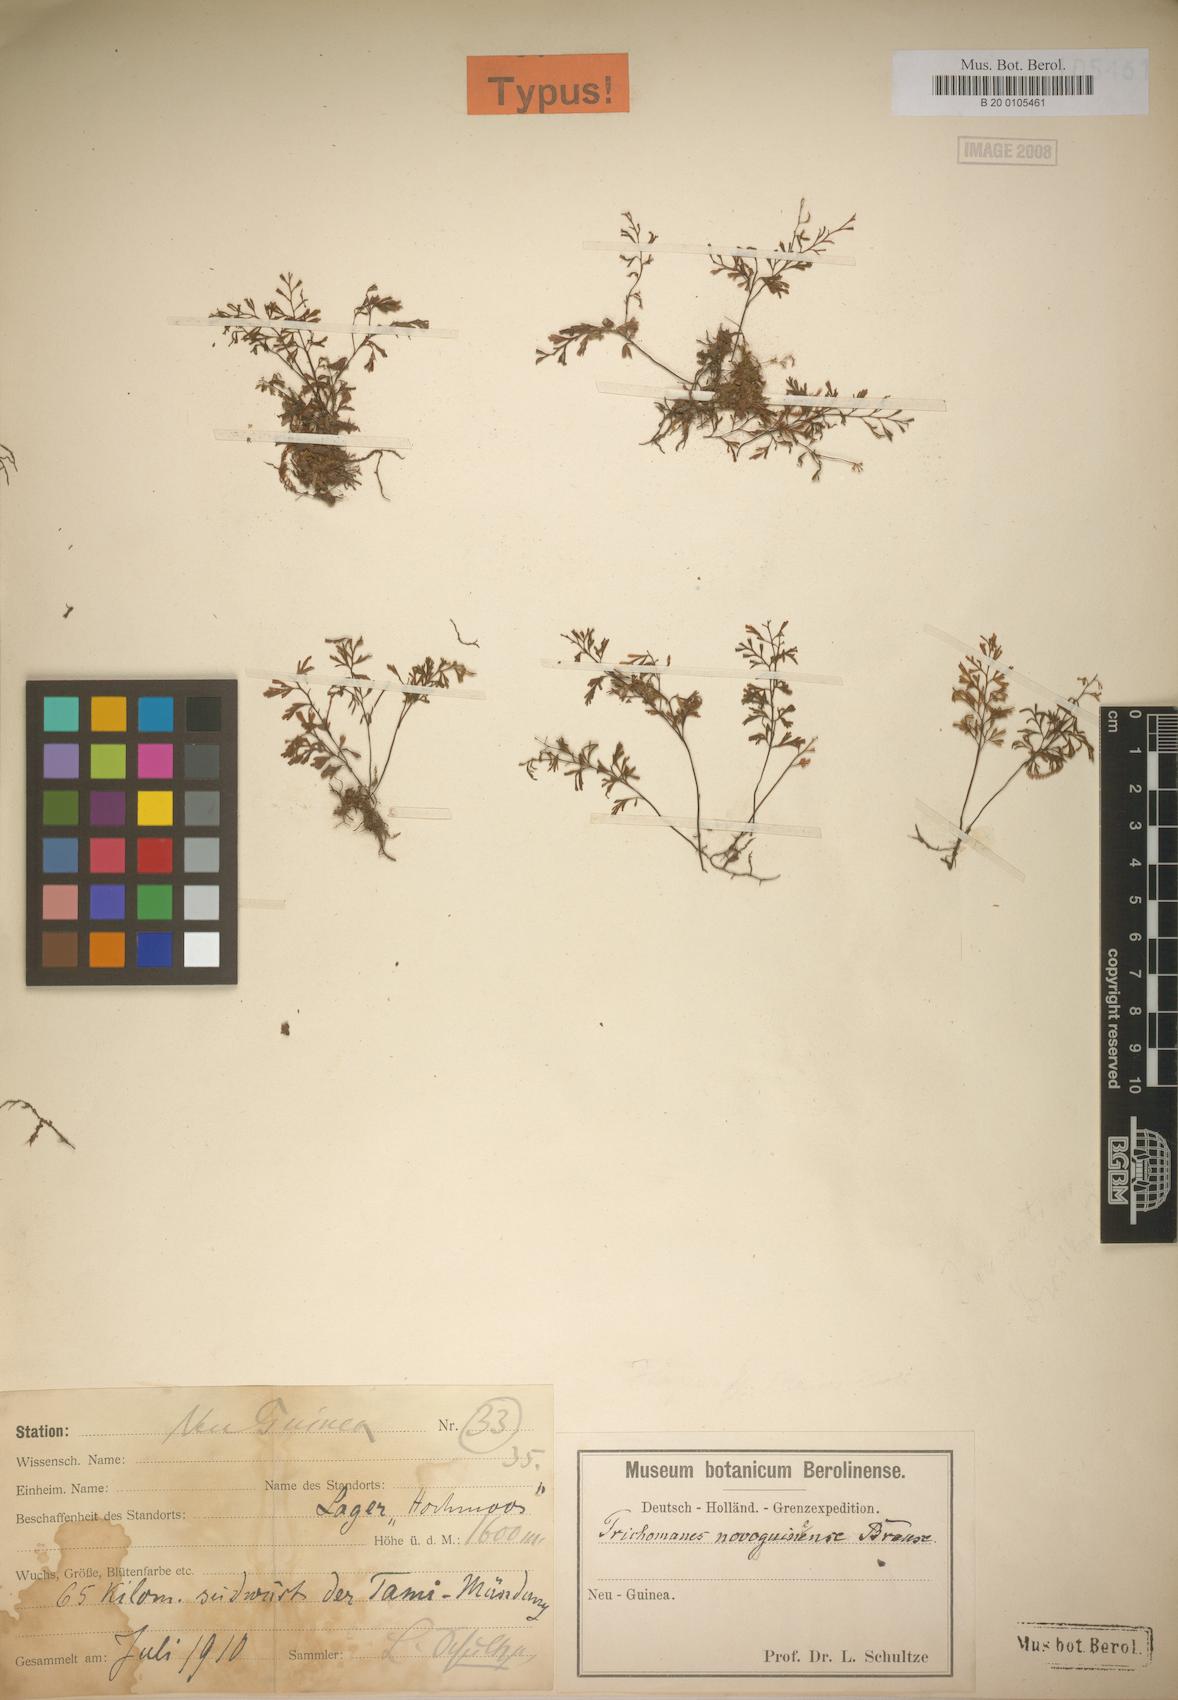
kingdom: Plantae
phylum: Tracheophyta
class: Polypodiopsida
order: Hymenophyllales
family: Hymenophyllaceae
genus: Crepidomanes
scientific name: Crepidomanes novoguineense
